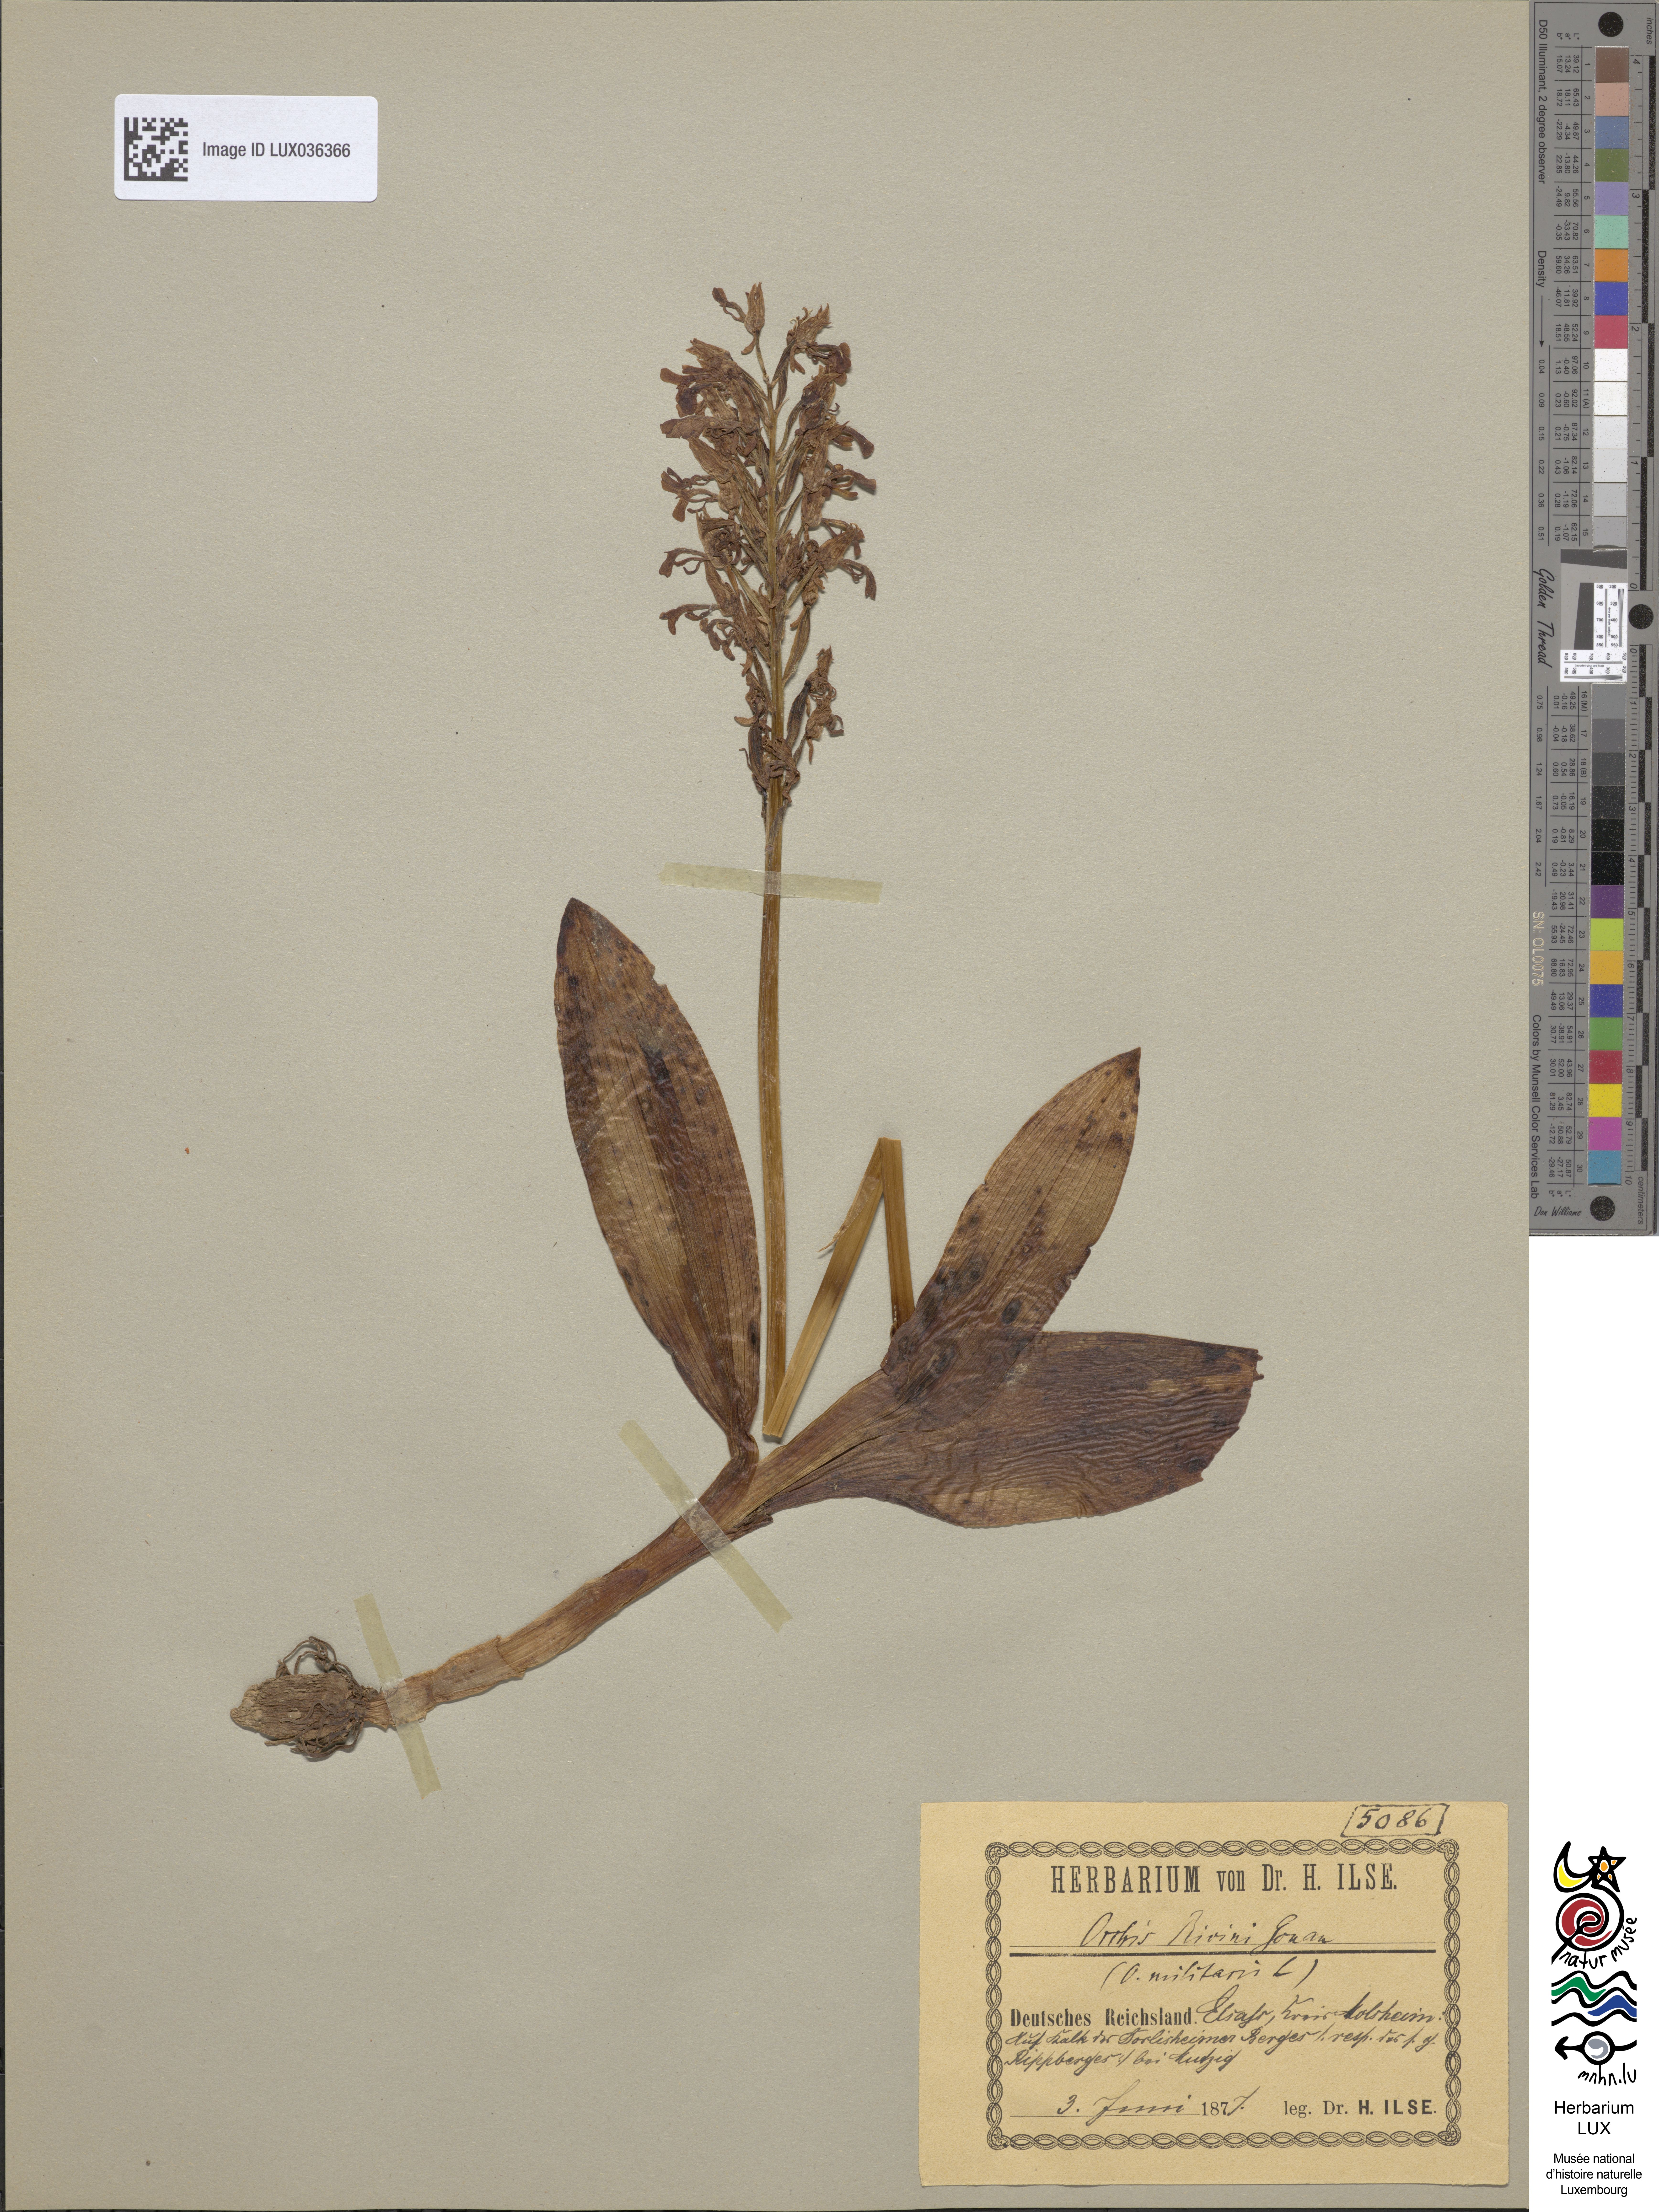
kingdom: Plantae
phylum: Tracheophyta
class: Liliopsida
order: Asparagales
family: Orchidaceae
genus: Orchis
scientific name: Orchis militaris
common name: Military orchid
